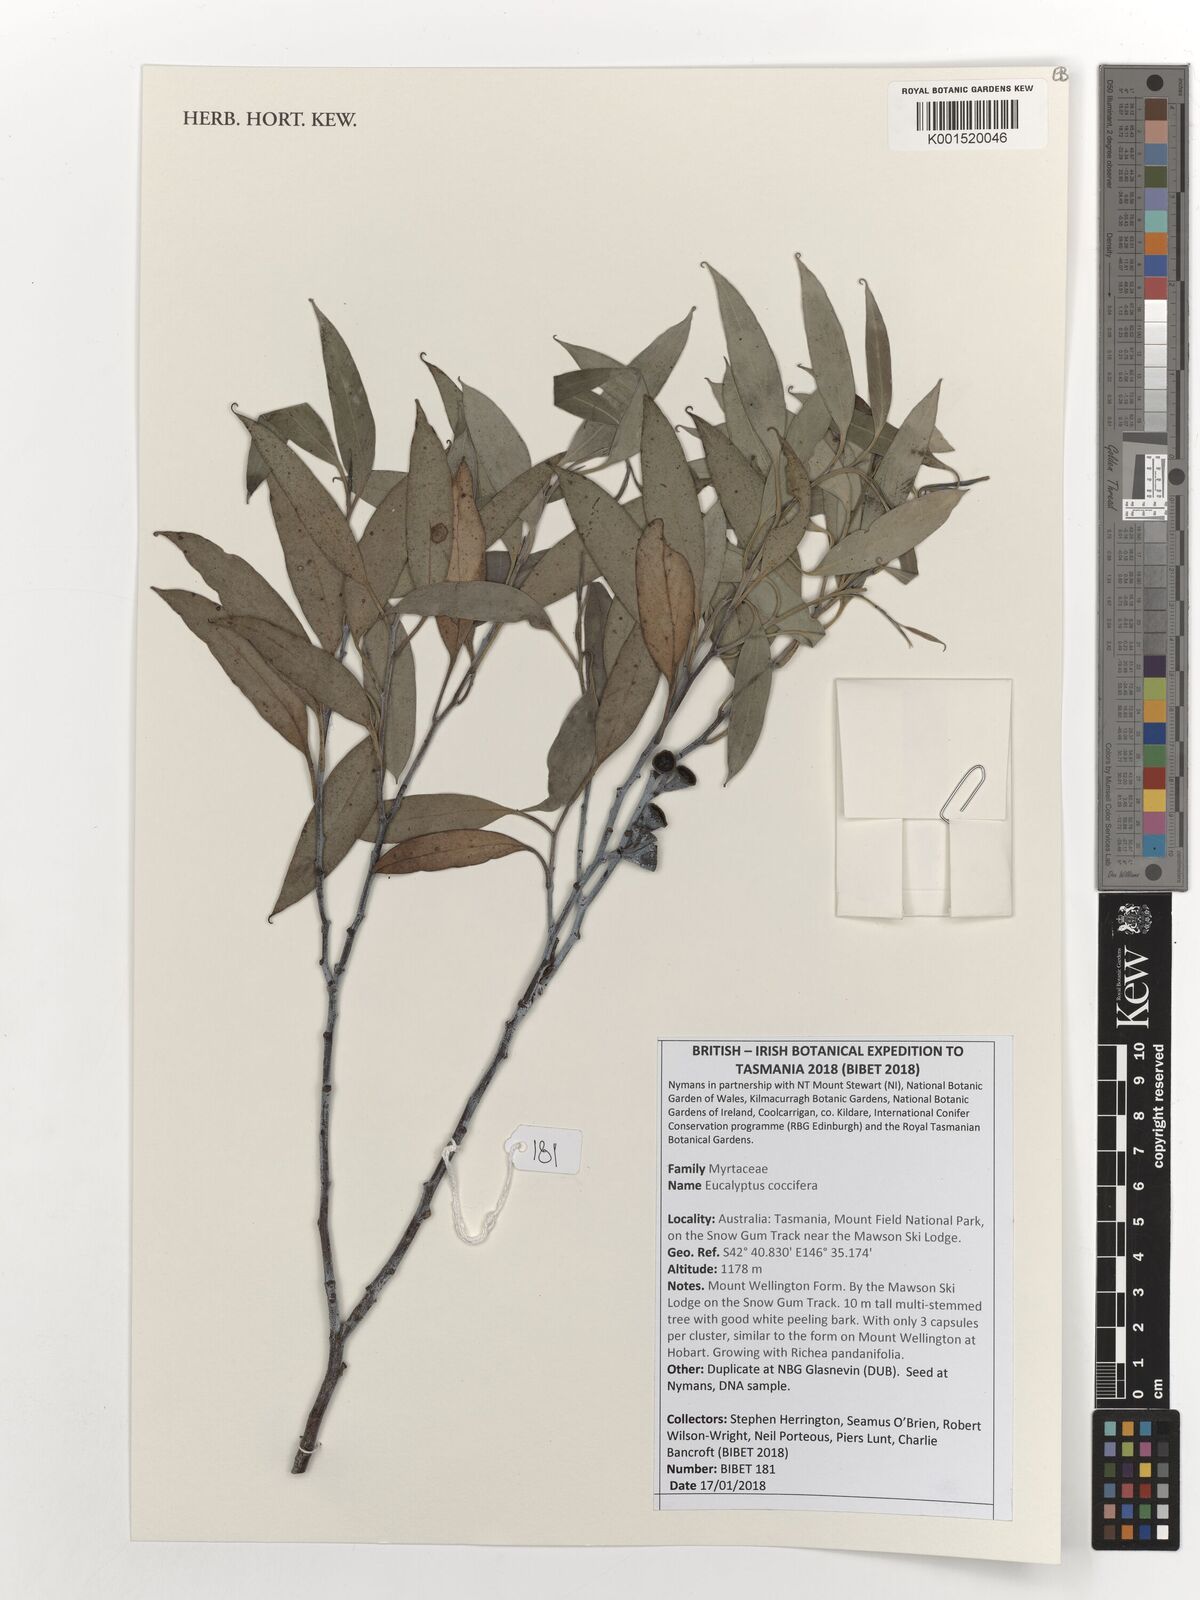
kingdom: Plantae
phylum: Tracheophyta
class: Magnoliopsida
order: Myrtales
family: Myrtaceae
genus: Eucalyptus
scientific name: Eucalyptus coccifera
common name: Tasmanian snow-gum
